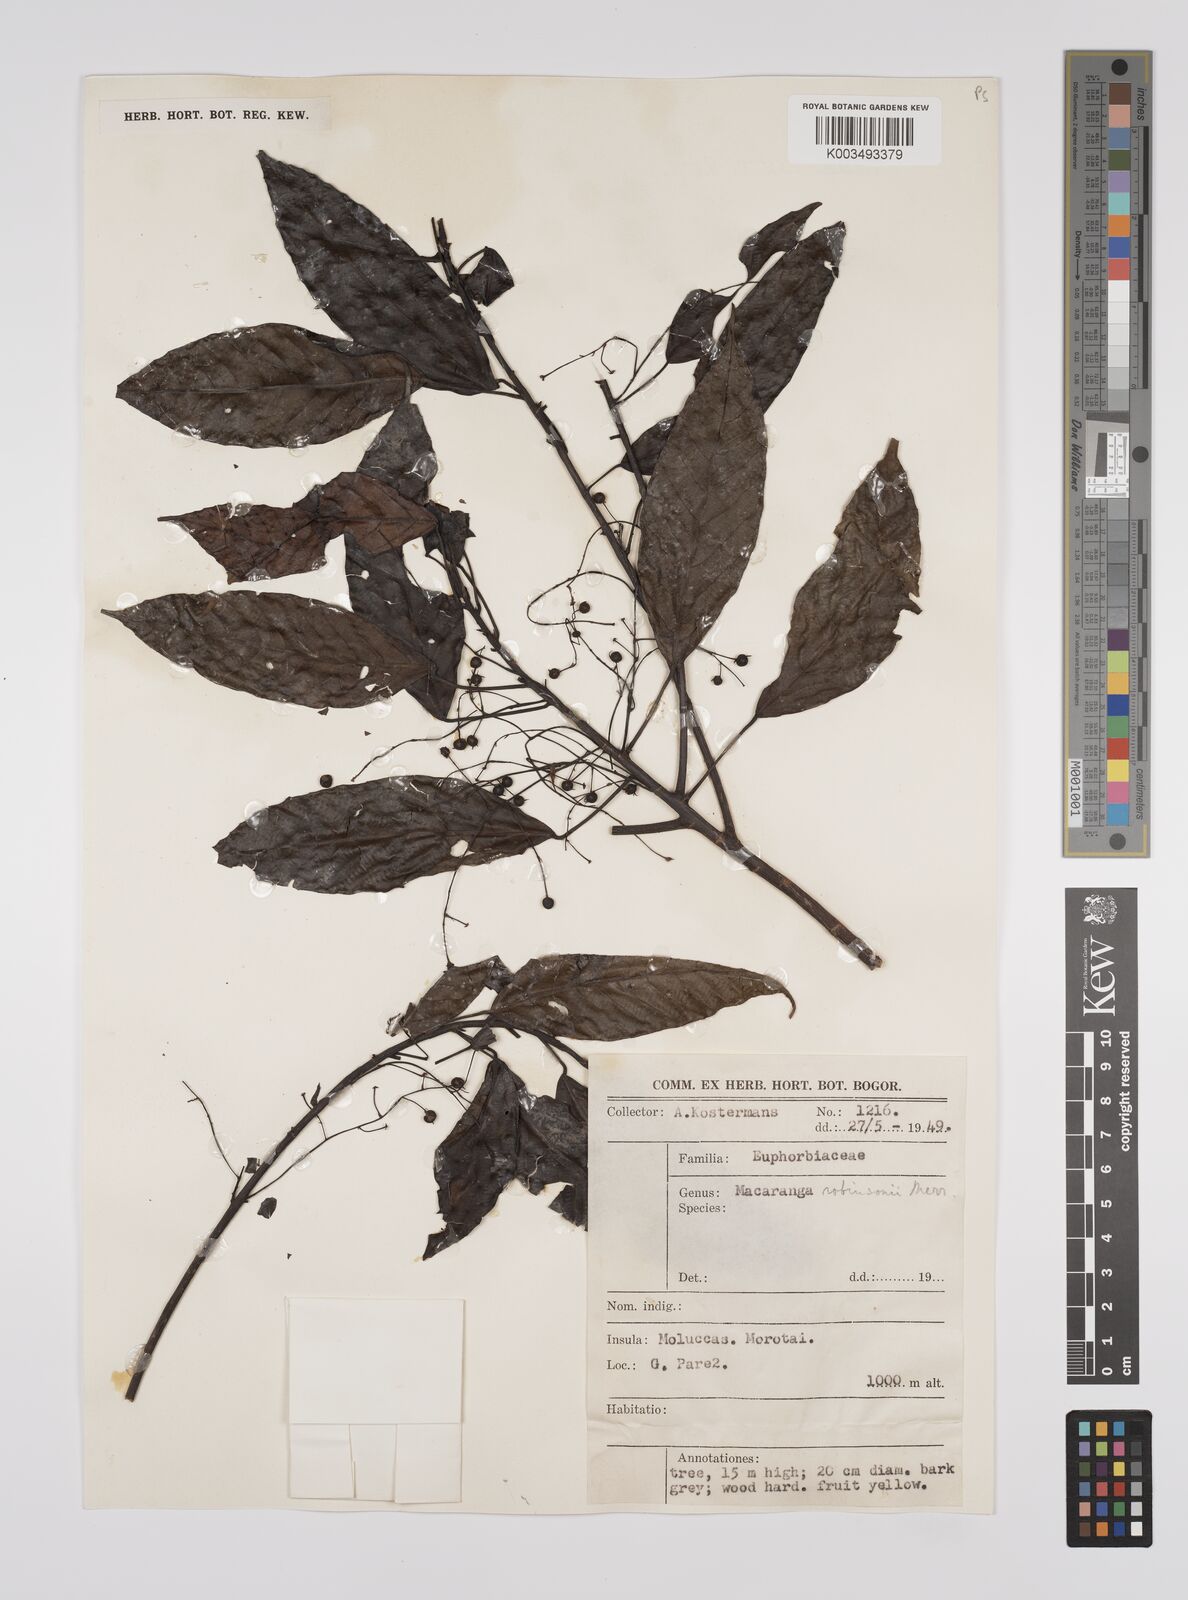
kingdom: Plantae
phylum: Tracheophyta
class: Magnoliopsida
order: Malpighiales
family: Euphorbiaceae
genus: Macaranga
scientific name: Macaranga robinsonii
